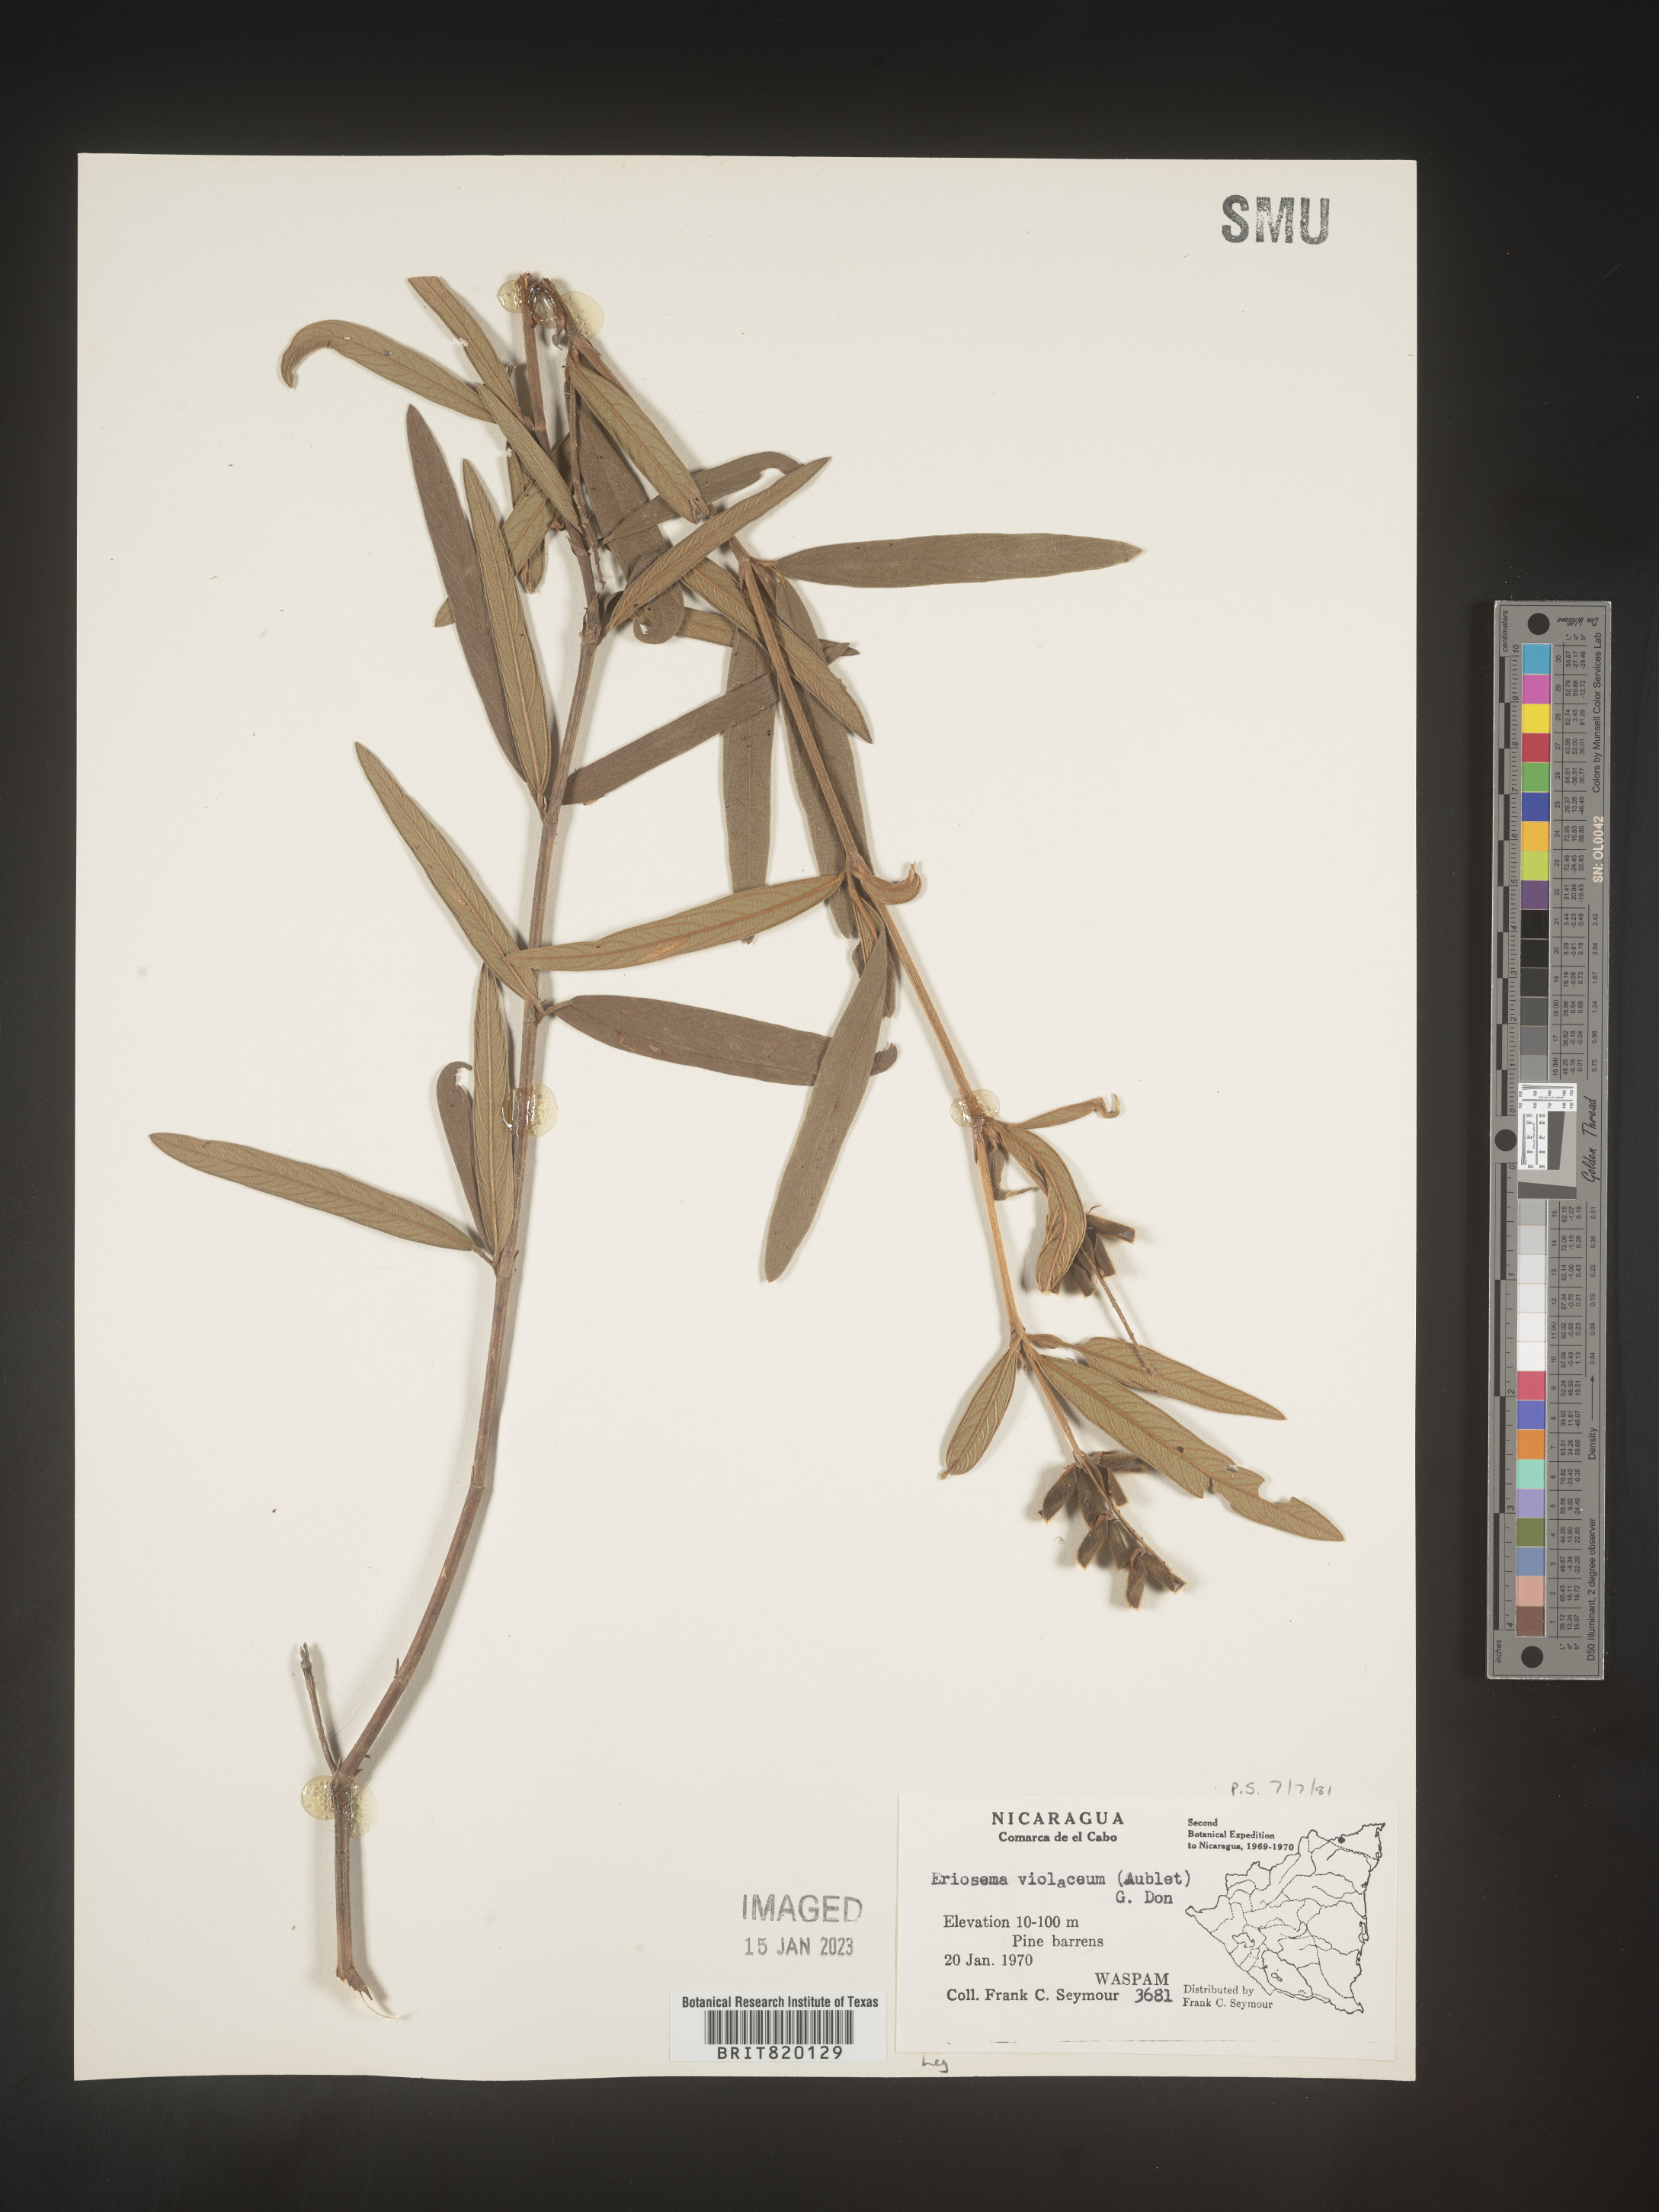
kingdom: Plantae
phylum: Tracheophyta
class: Magnoliopsida
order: Fabales
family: Fabaceae
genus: Eriosema
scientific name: Eriosema
